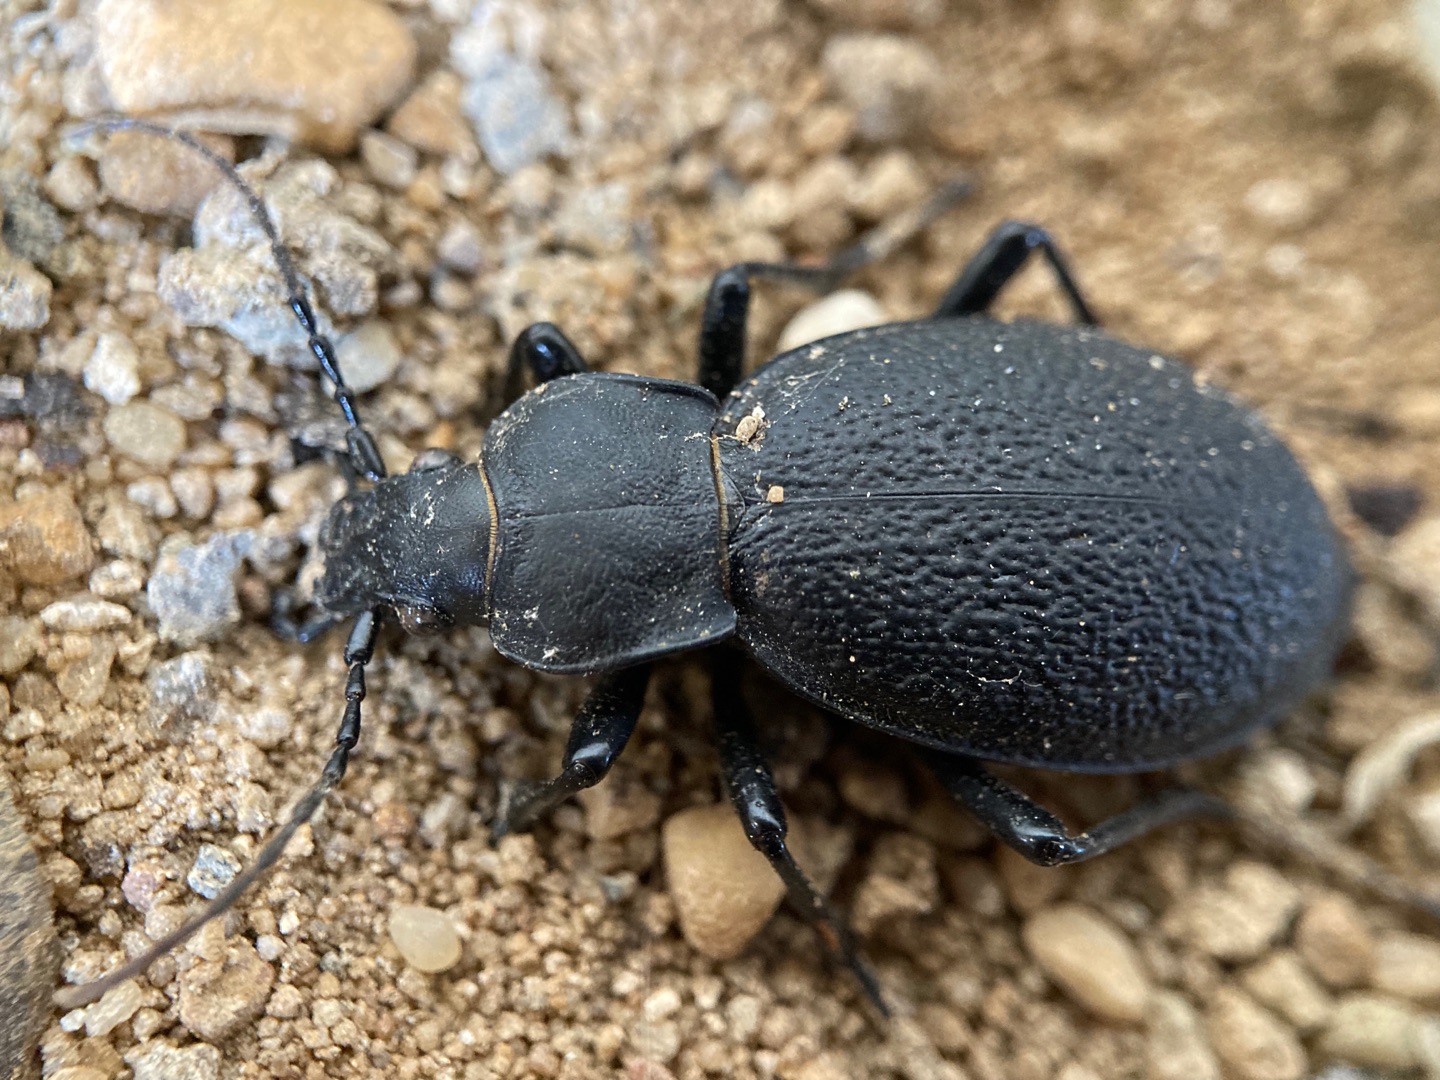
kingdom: Animalia
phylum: Arthropoda
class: Insecta
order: Coleoptera
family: Carabidae
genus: Carabus
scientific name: Carabus coriaceus
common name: Læderløber
